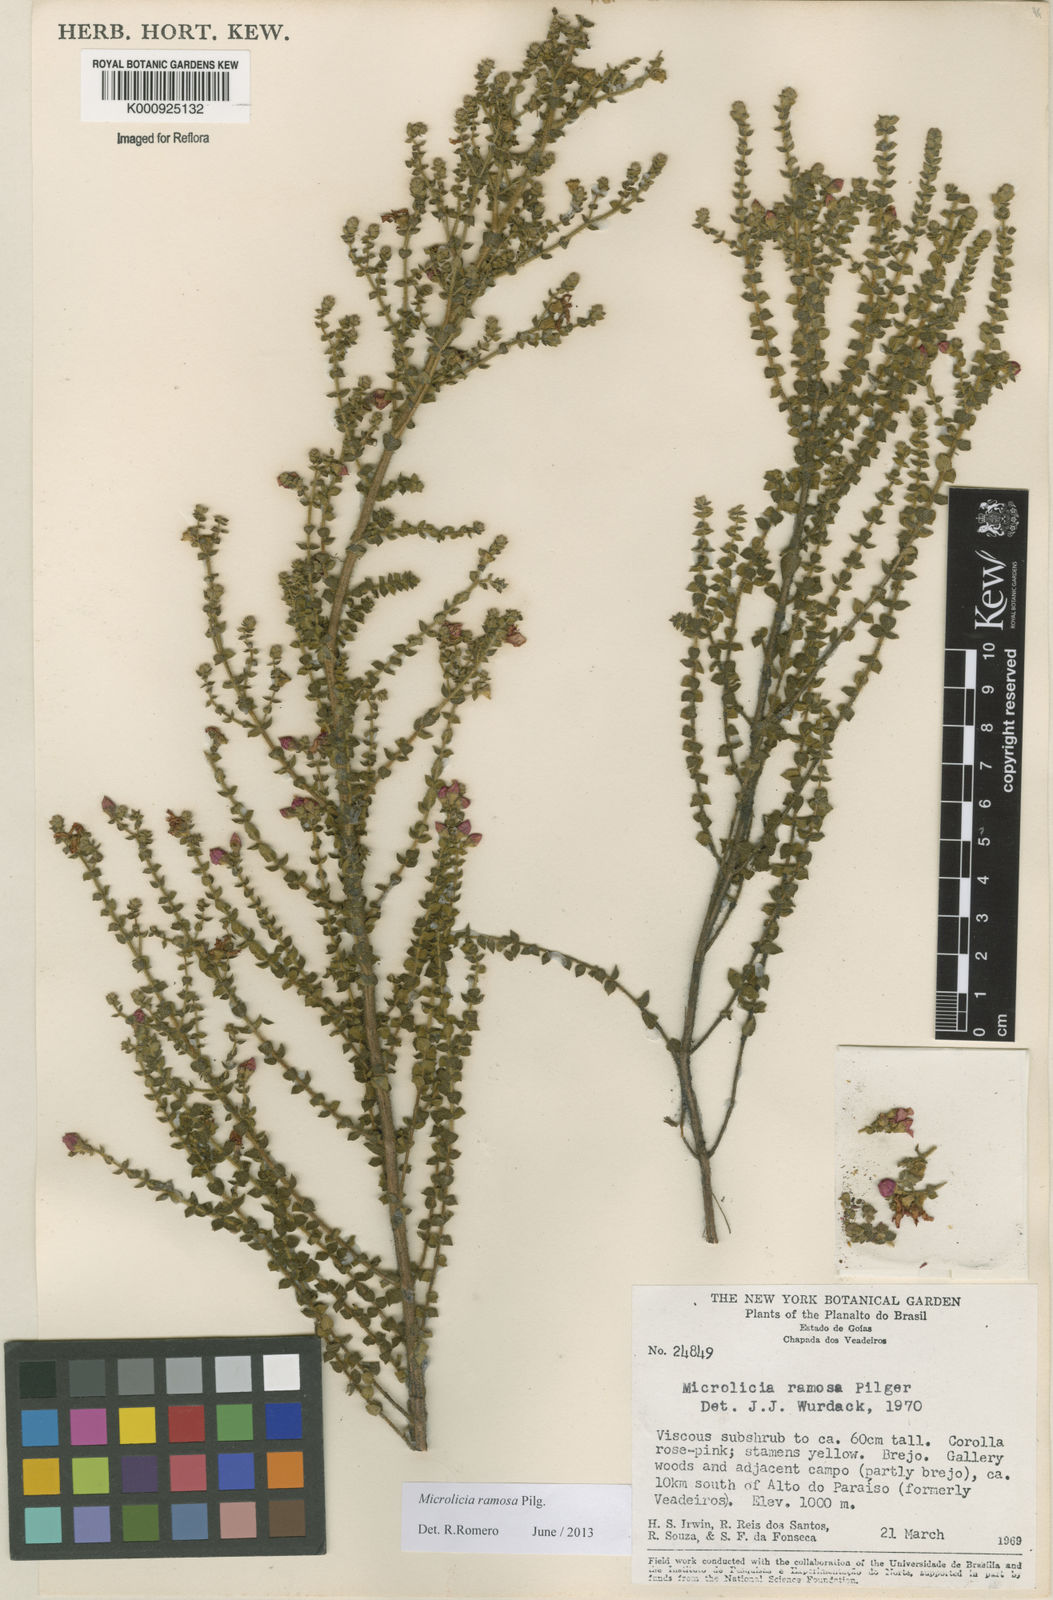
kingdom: Plantae
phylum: Tracheophyta
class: Magnoliopsida
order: Myrtales
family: Melastomataceae
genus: Microlicia
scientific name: Microlicia ramosa
